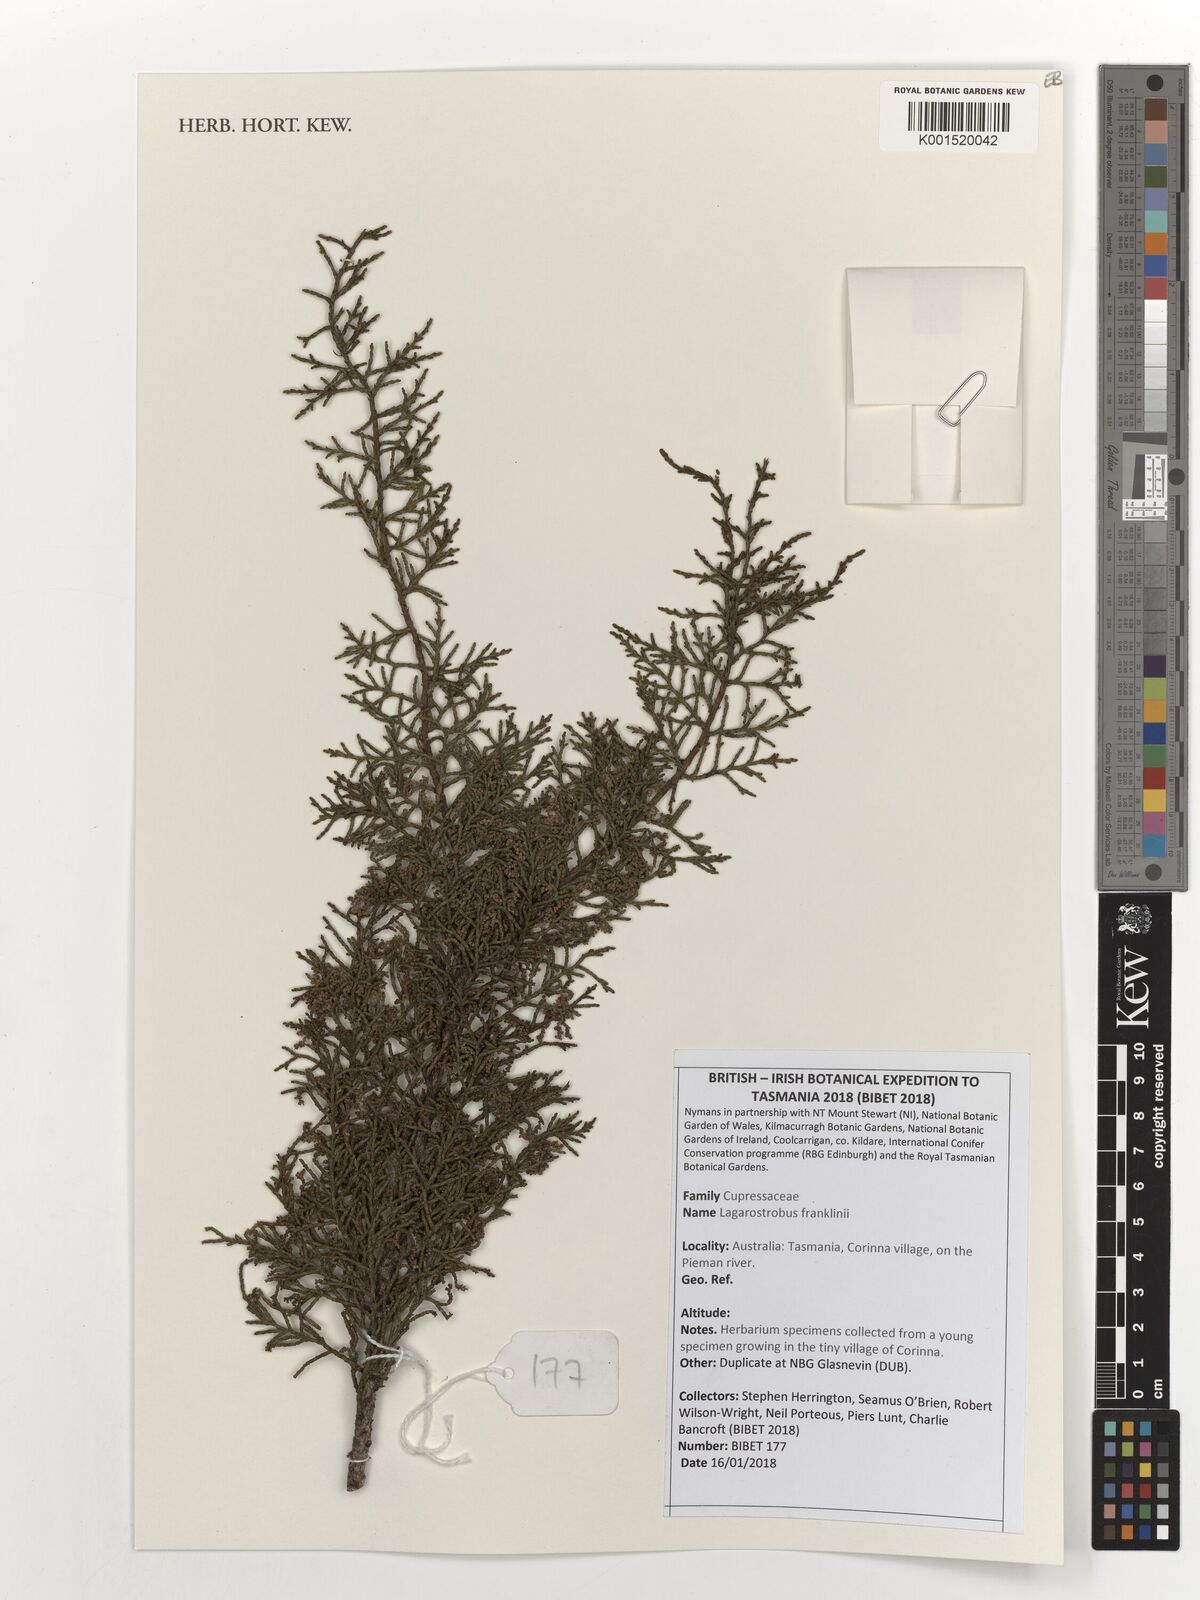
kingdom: Plantae
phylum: Tracheophyta
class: Pinopsida
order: Pinales
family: Podocarpaceae
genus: Lagarostrobos
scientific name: Lagarostrobos franklinii
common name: Huon pine
